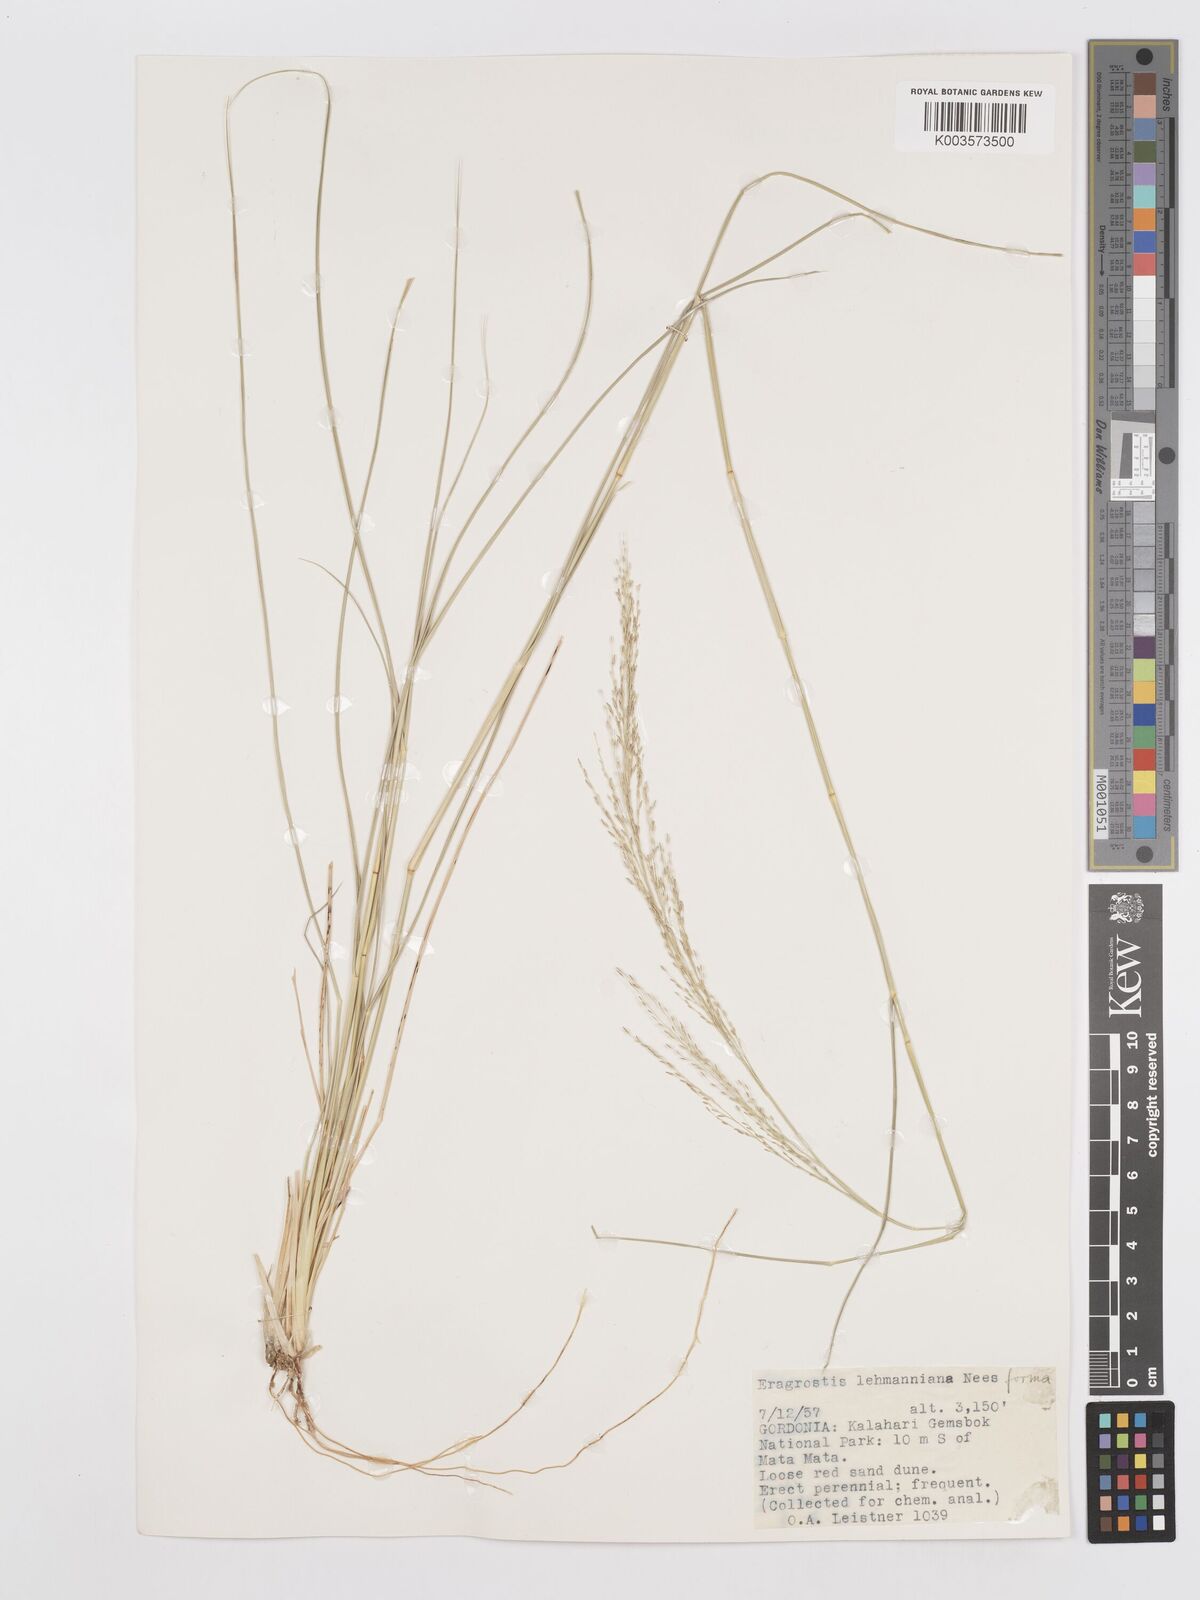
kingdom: Plantae
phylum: Tracheophyta
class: Liliopsida
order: Poales
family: Poaceae
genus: Eragrostis
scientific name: Eragrostis lehmanniana
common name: Lehmann lovegrass
